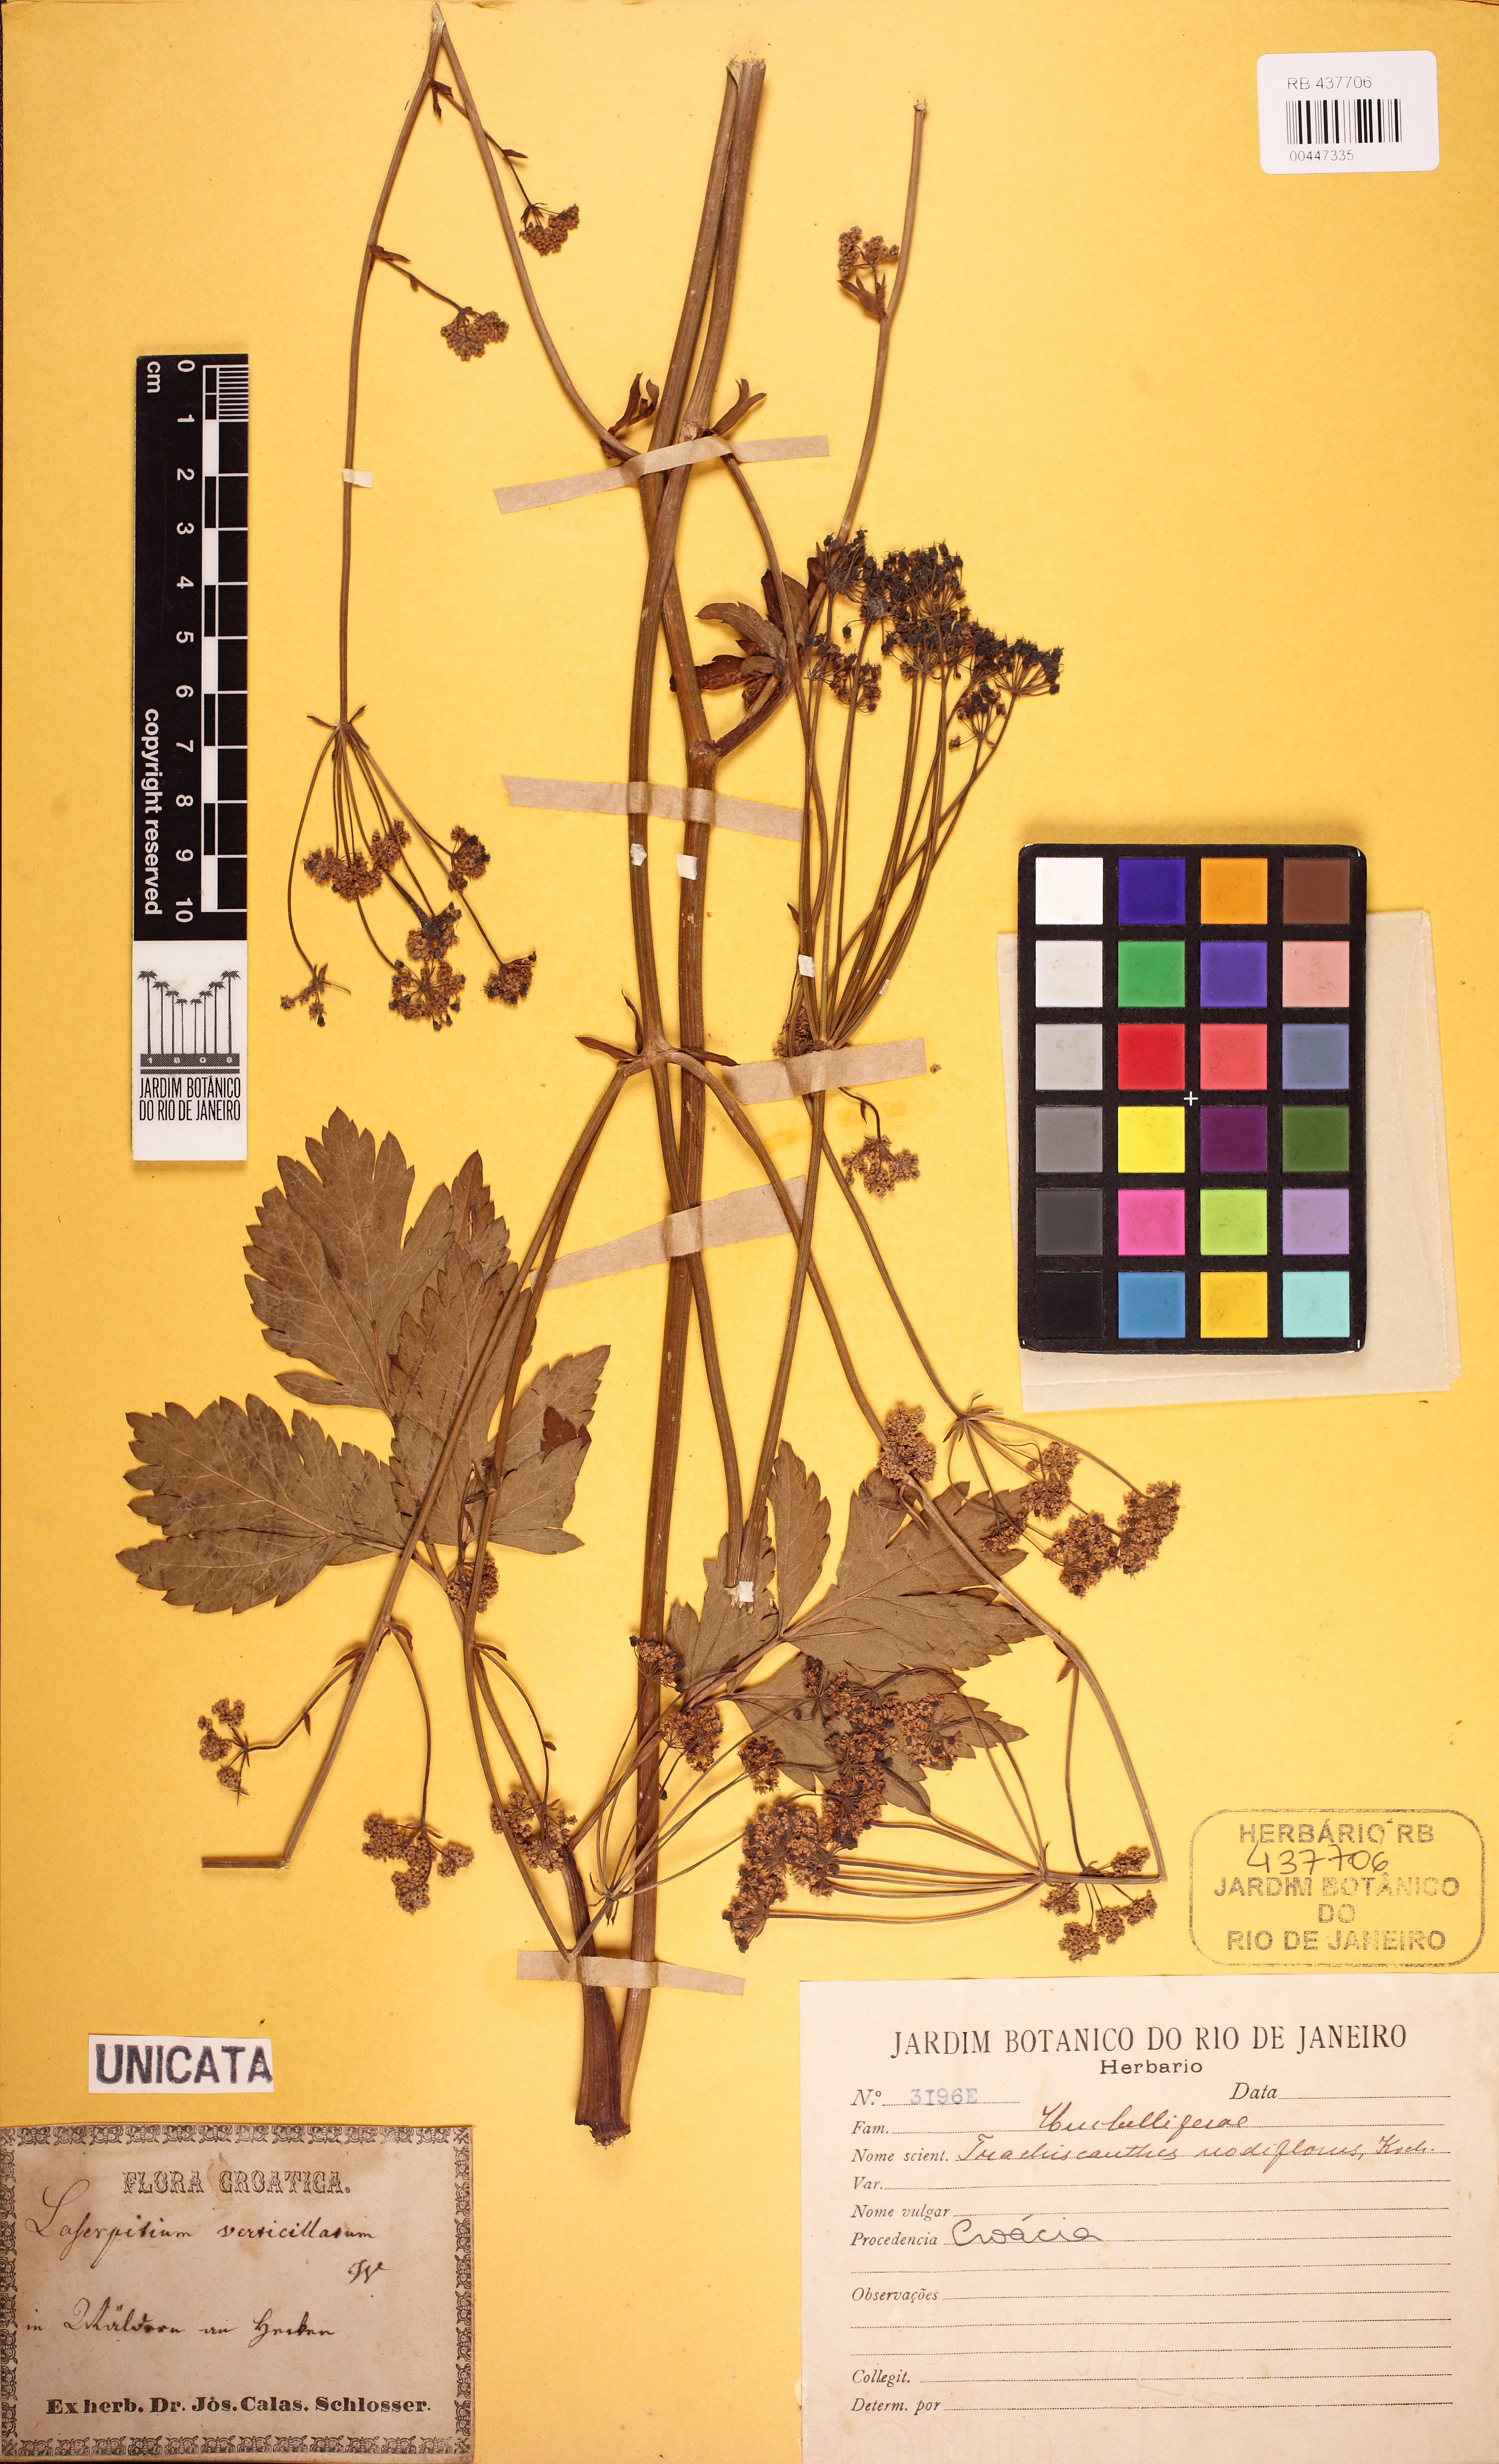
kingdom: Plantae
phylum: Tracheophyta
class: Magnoliopsida
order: Apiales
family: Apiaceae
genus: Trochiscanthes
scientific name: Trochiscanthes nodiflora
